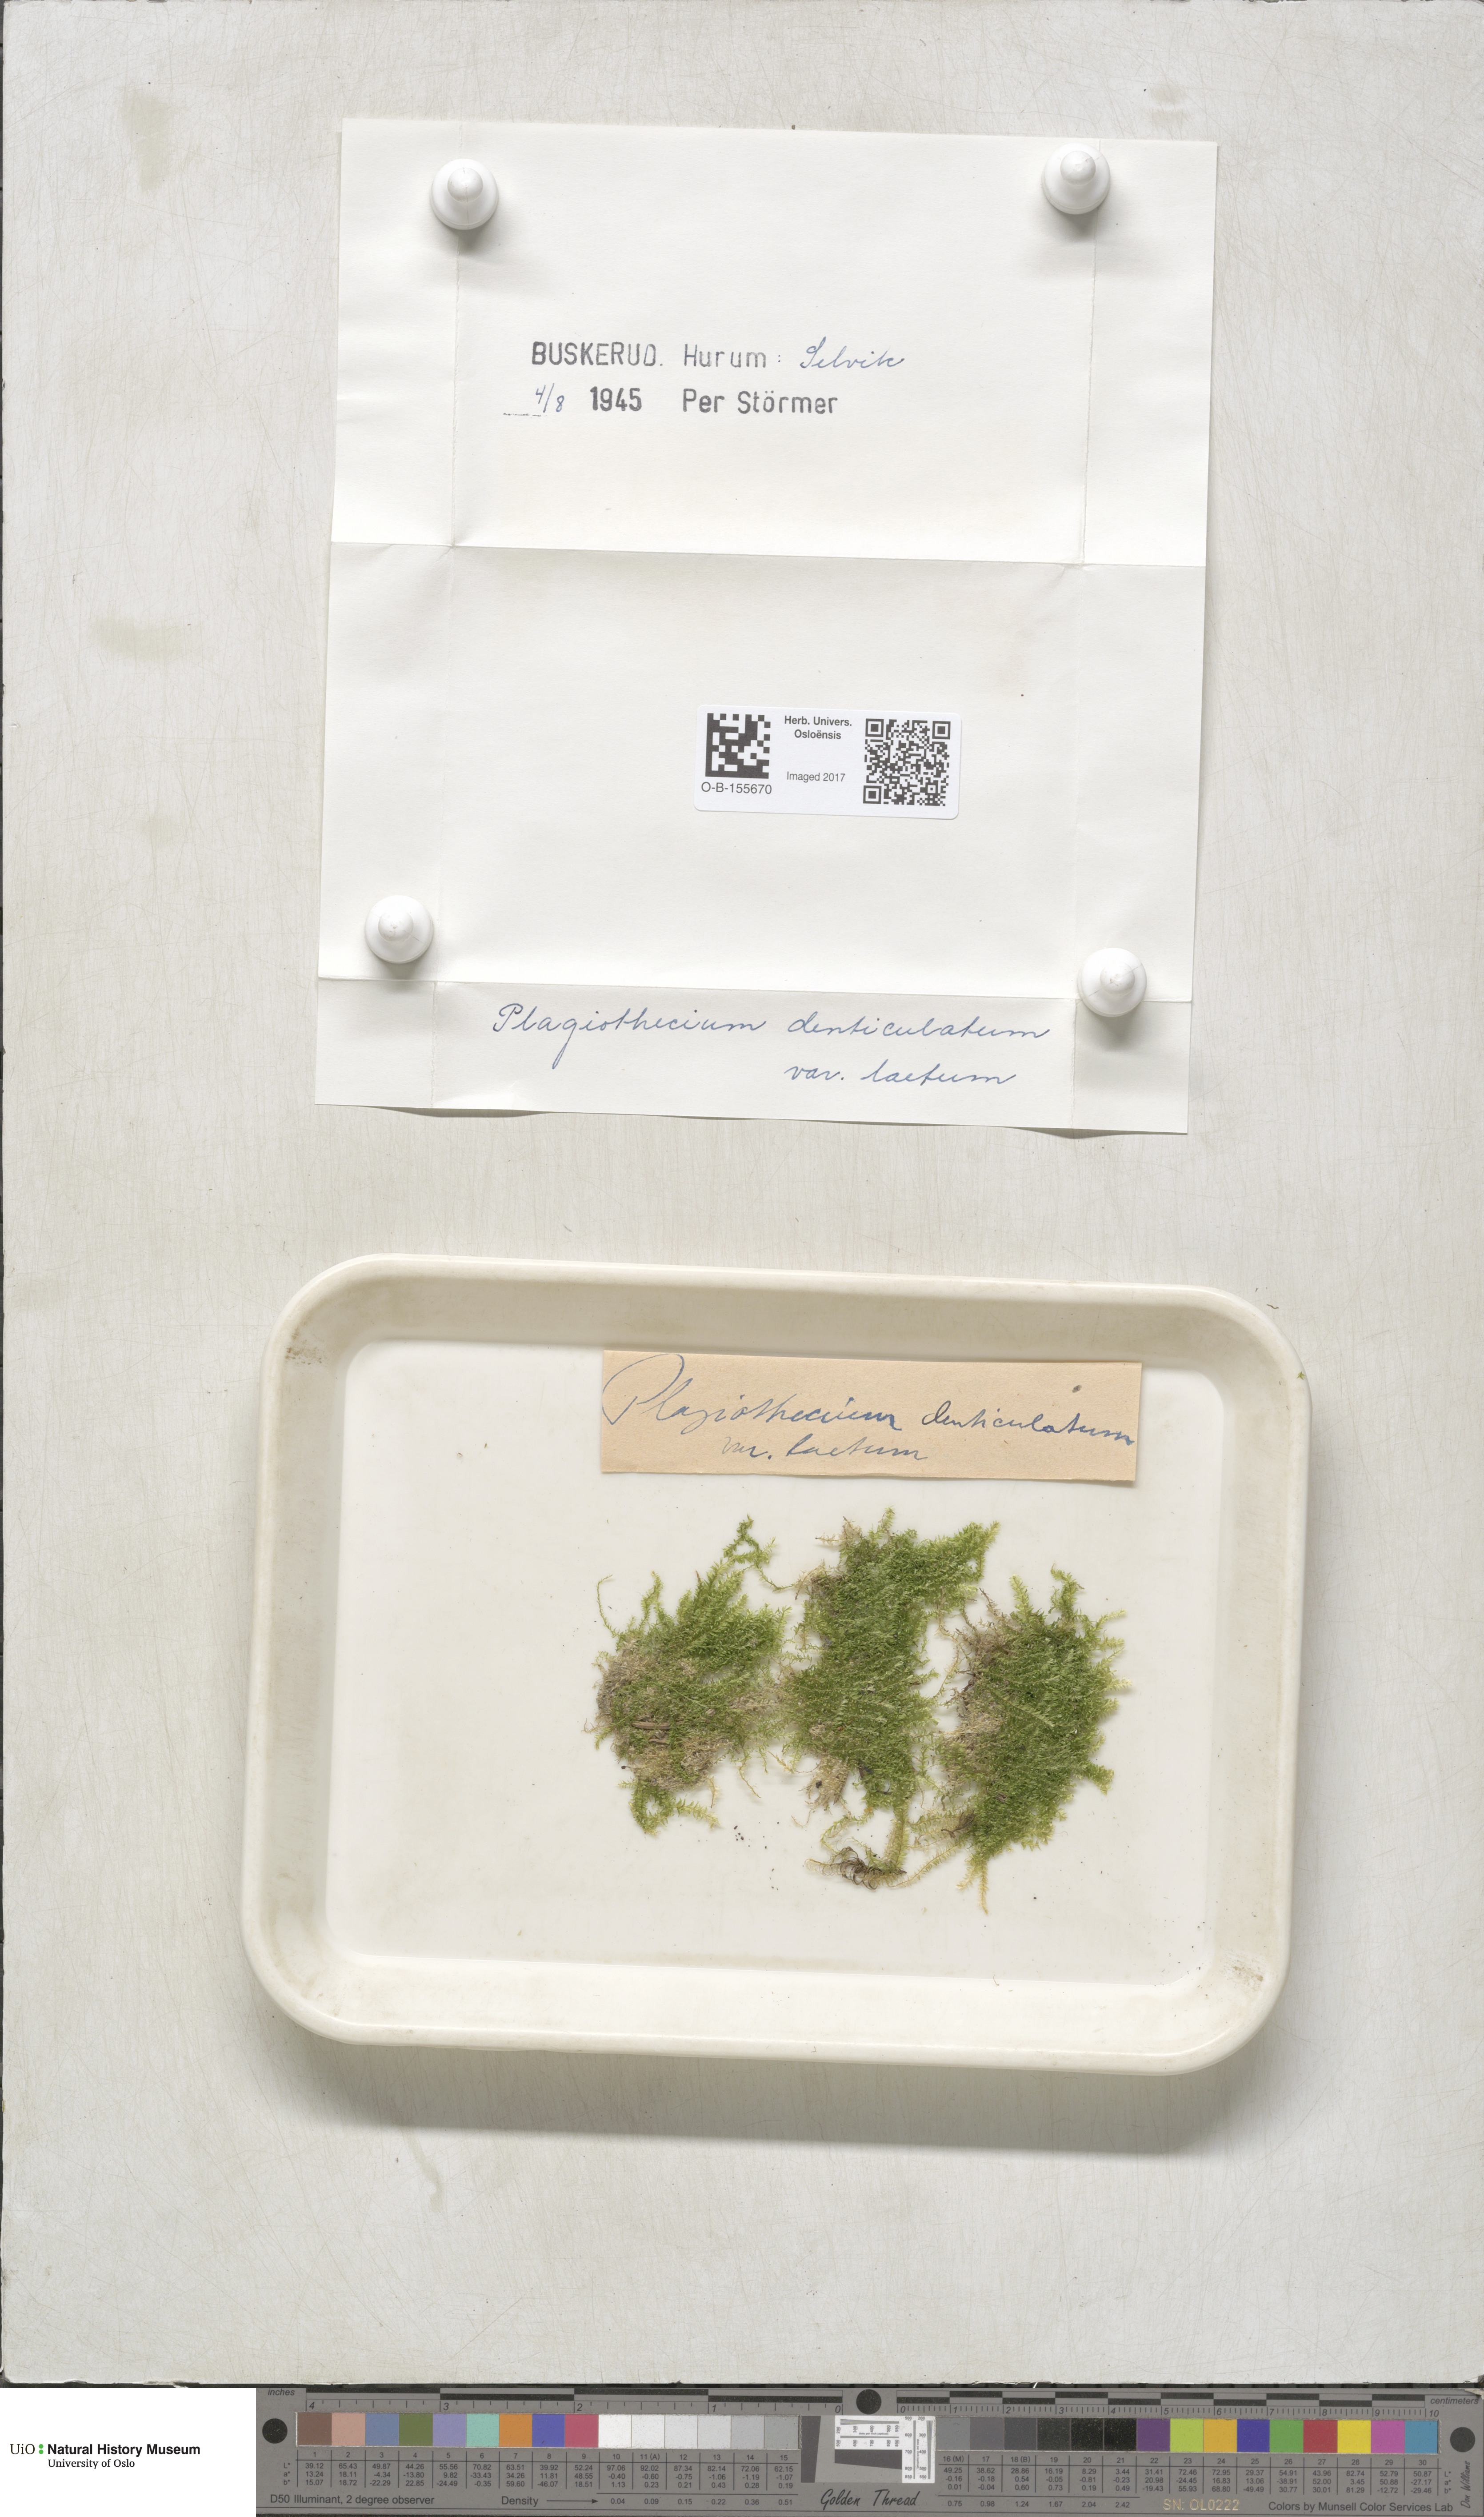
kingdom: Plantae
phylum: Bryophyta
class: Bryopsida
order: Hypnales
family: Plagiotheciaceae
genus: Plagiothecium
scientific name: Plagiothecium laetum
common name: Bright silk moss
